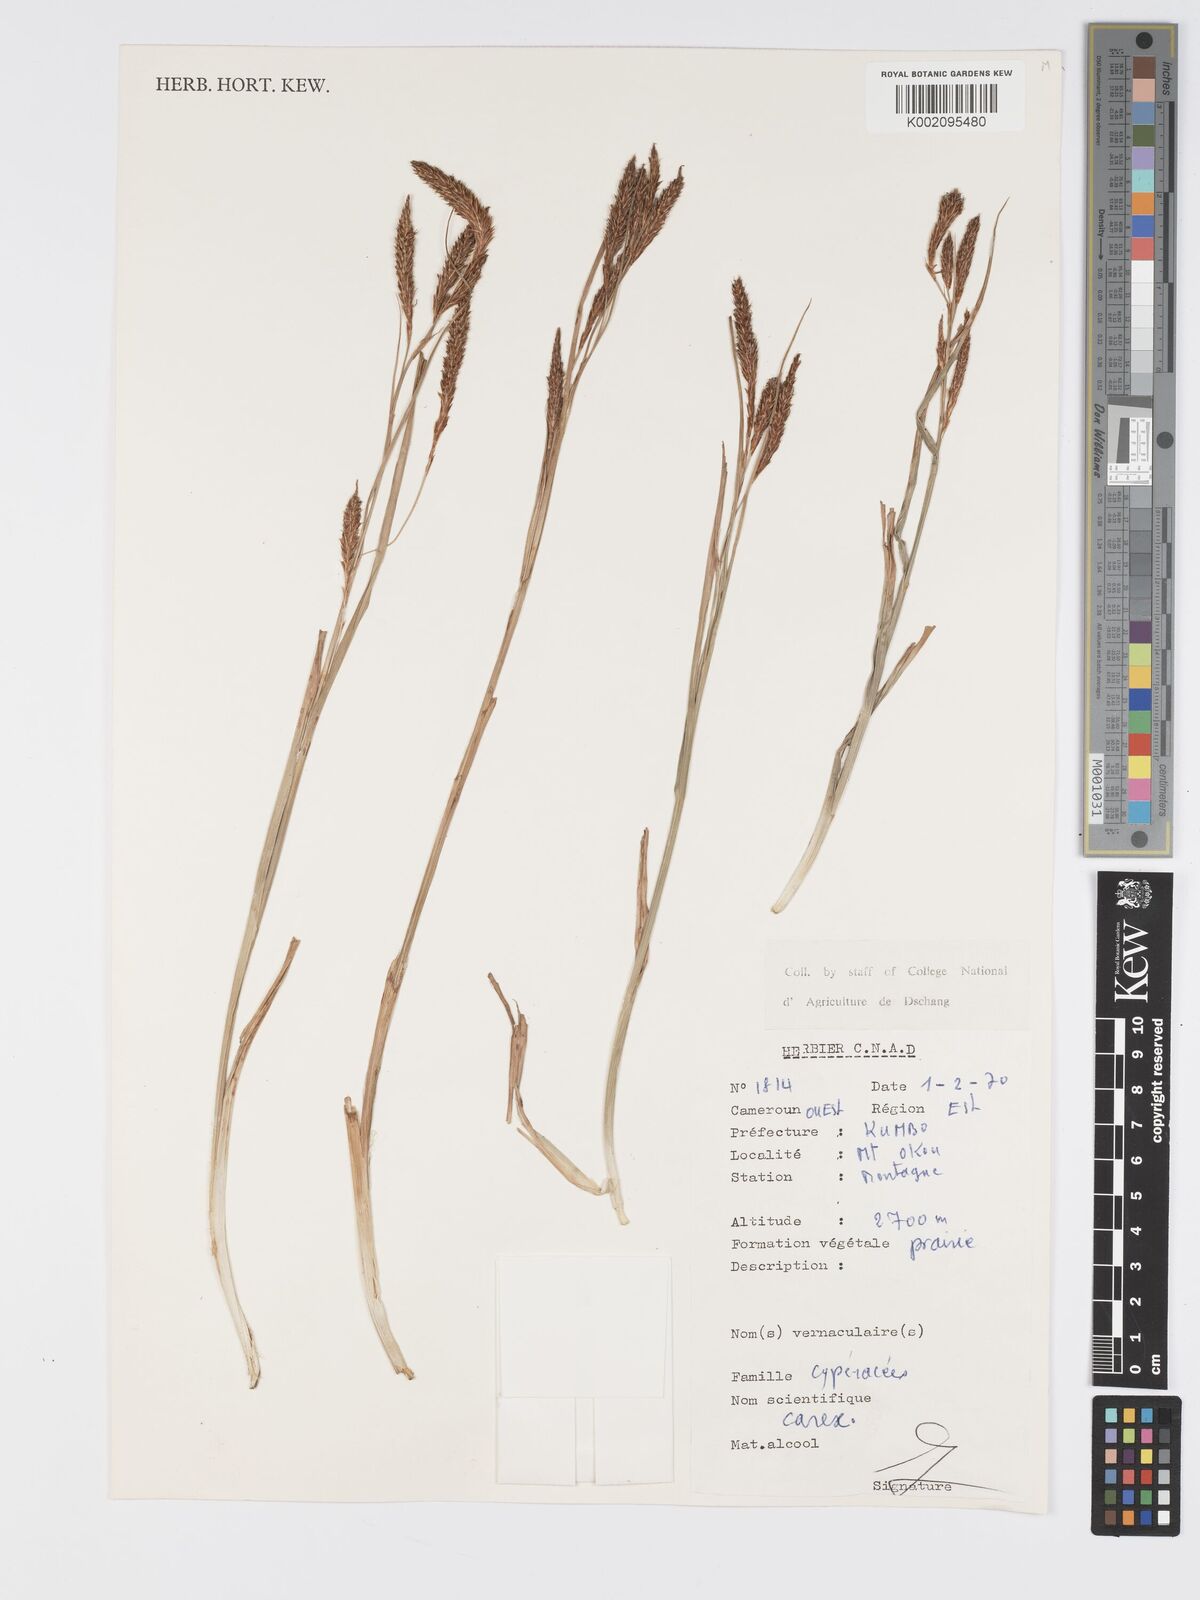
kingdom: Plantae
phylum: Tracheophyta
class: Liliopsida
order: Poales
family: Cyperaceae
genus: Carex
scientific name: Carex
